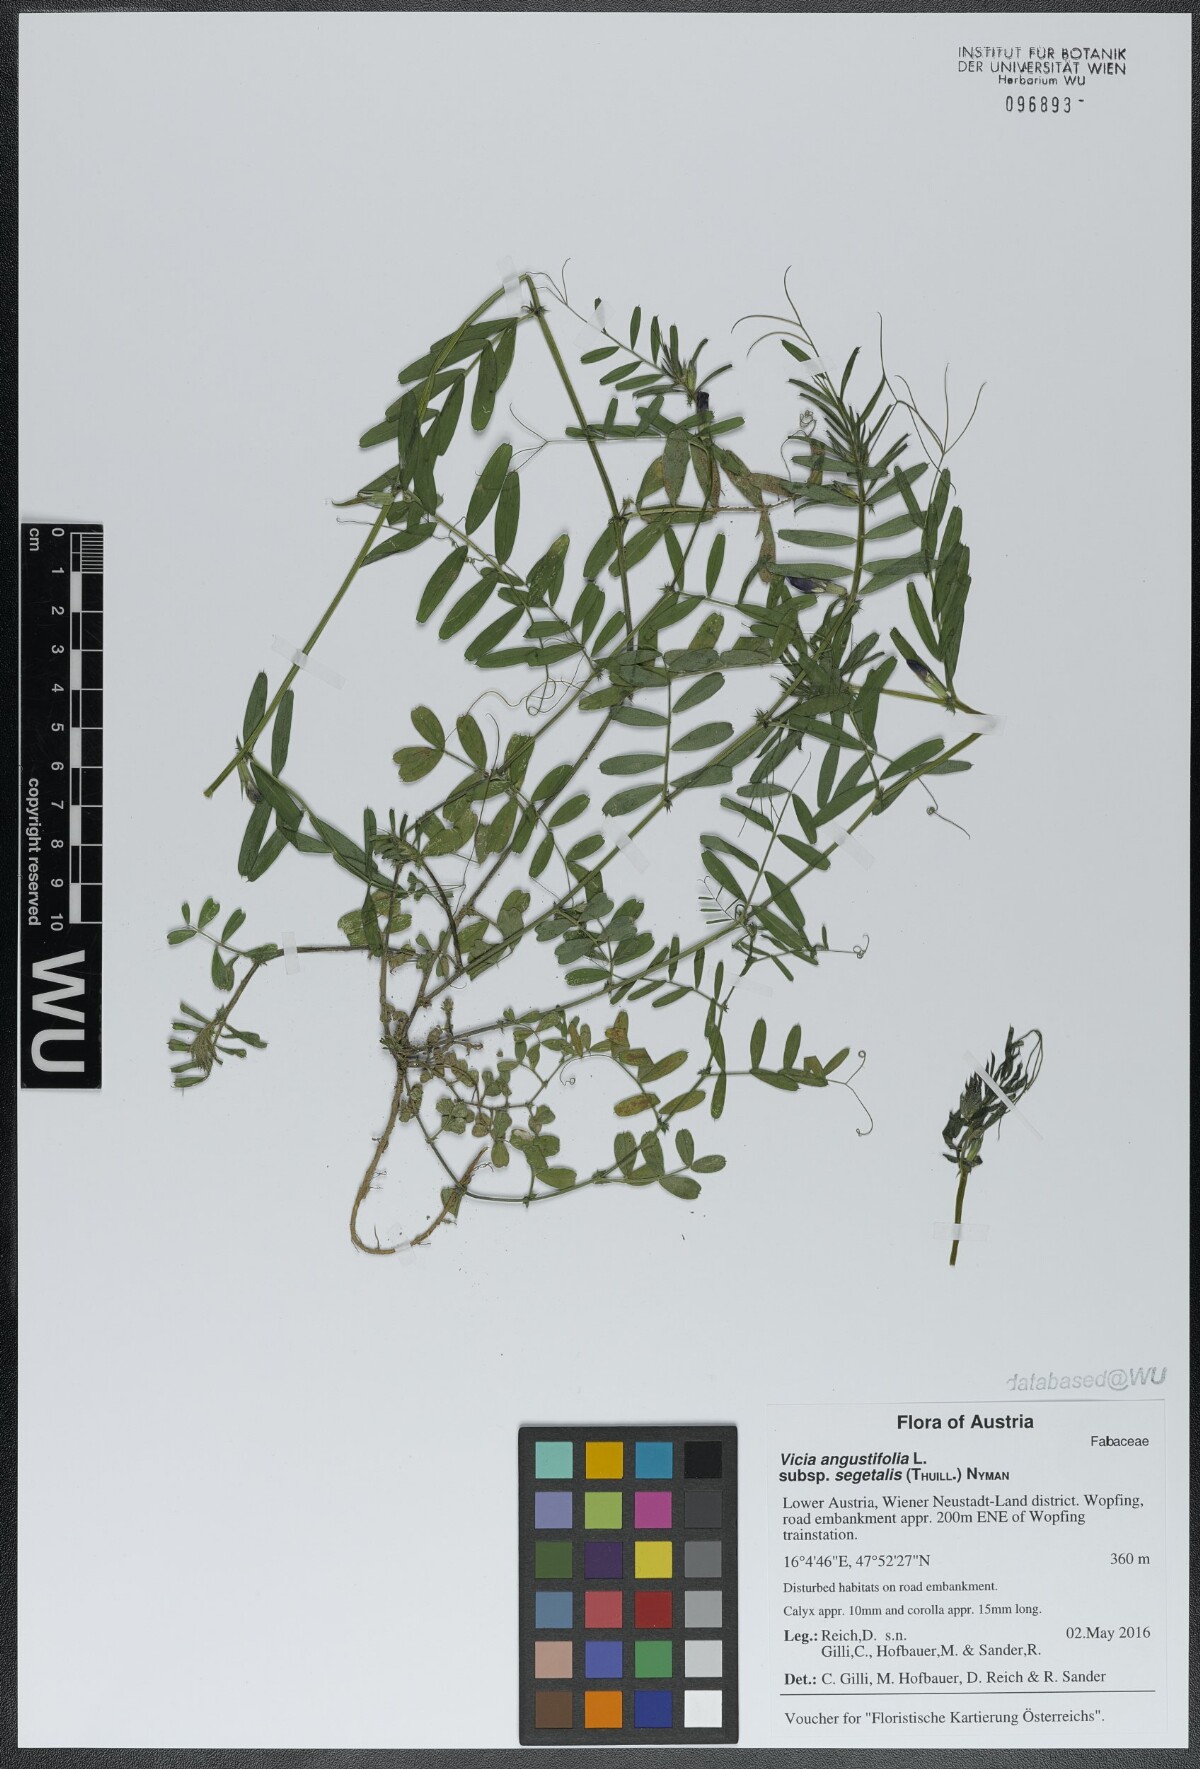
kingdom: Plantae
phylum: Tracheophyta
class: Magnoliopsida
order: Fabales
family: Fabaceae
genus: Vicia
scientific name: Vicia sativa
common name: Garden vetch
